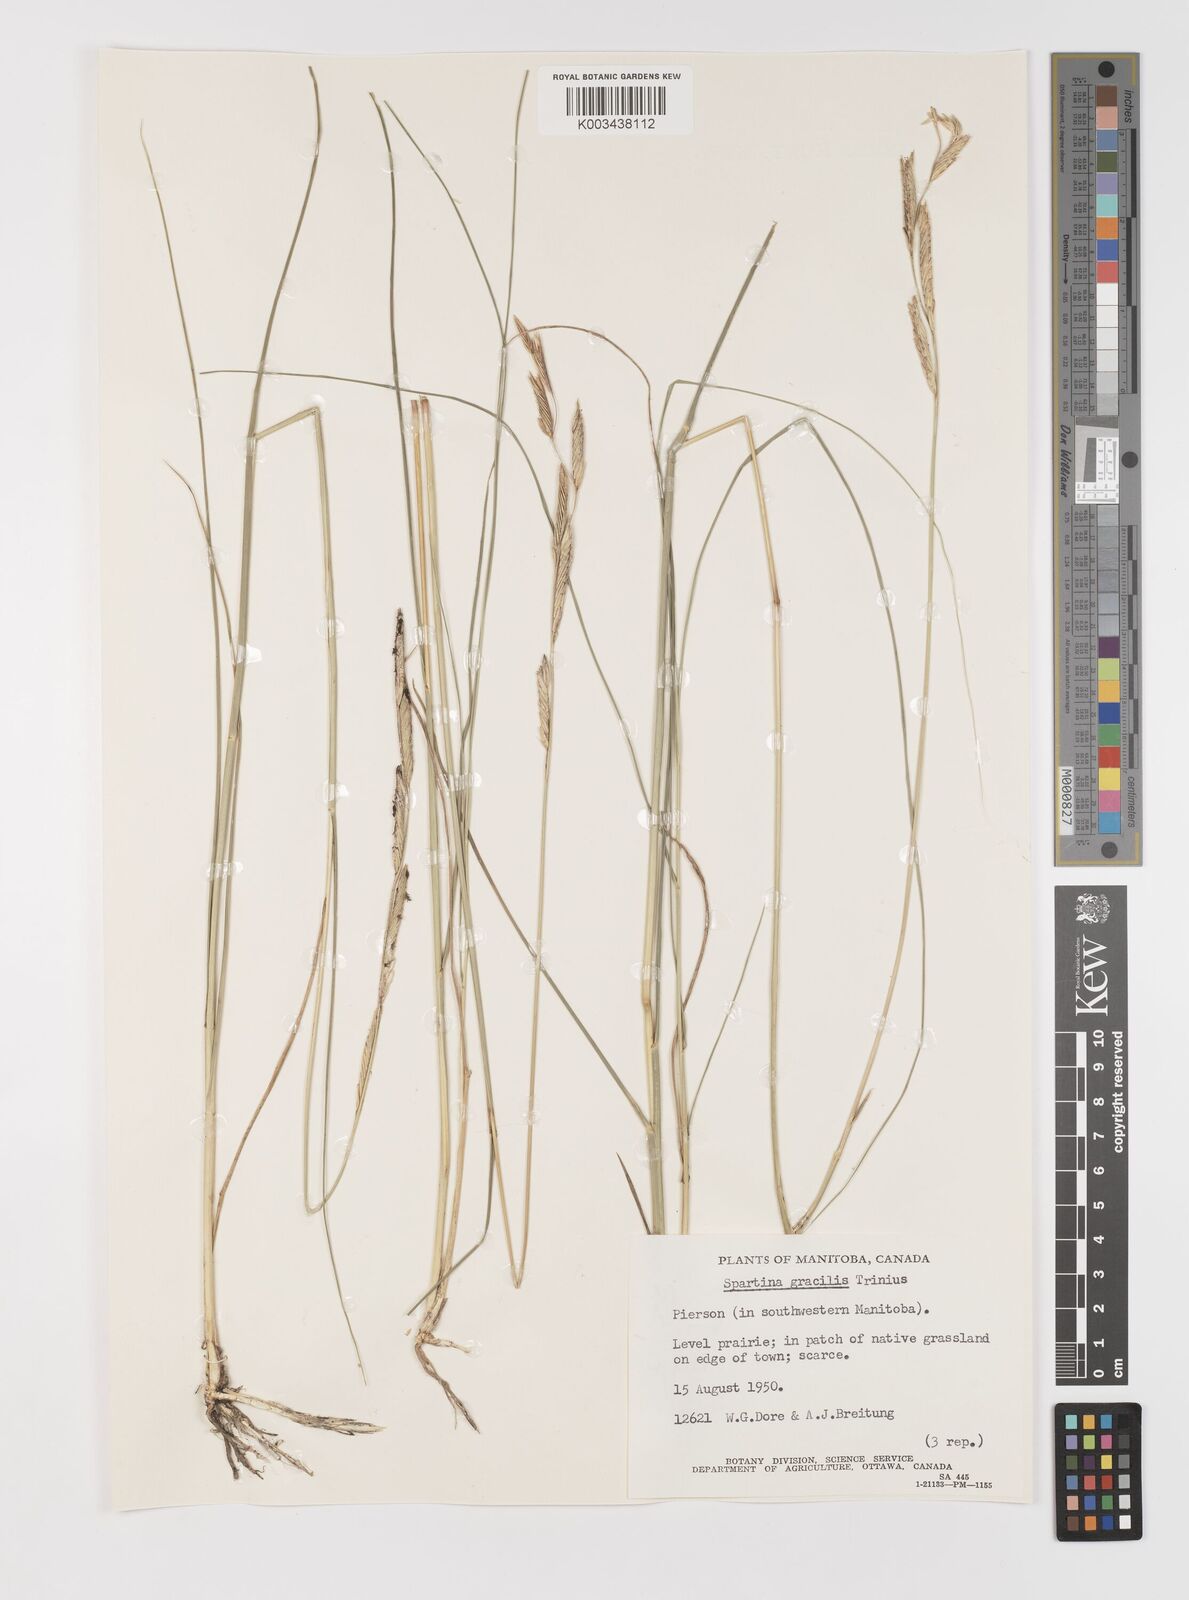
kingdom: Plantae
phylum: Tracheophyta
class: Liliopsida
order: Poales
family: Poaceae
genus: Sporobolus
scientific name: Sporobolus hookerianus
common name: Alkali cordgrass
